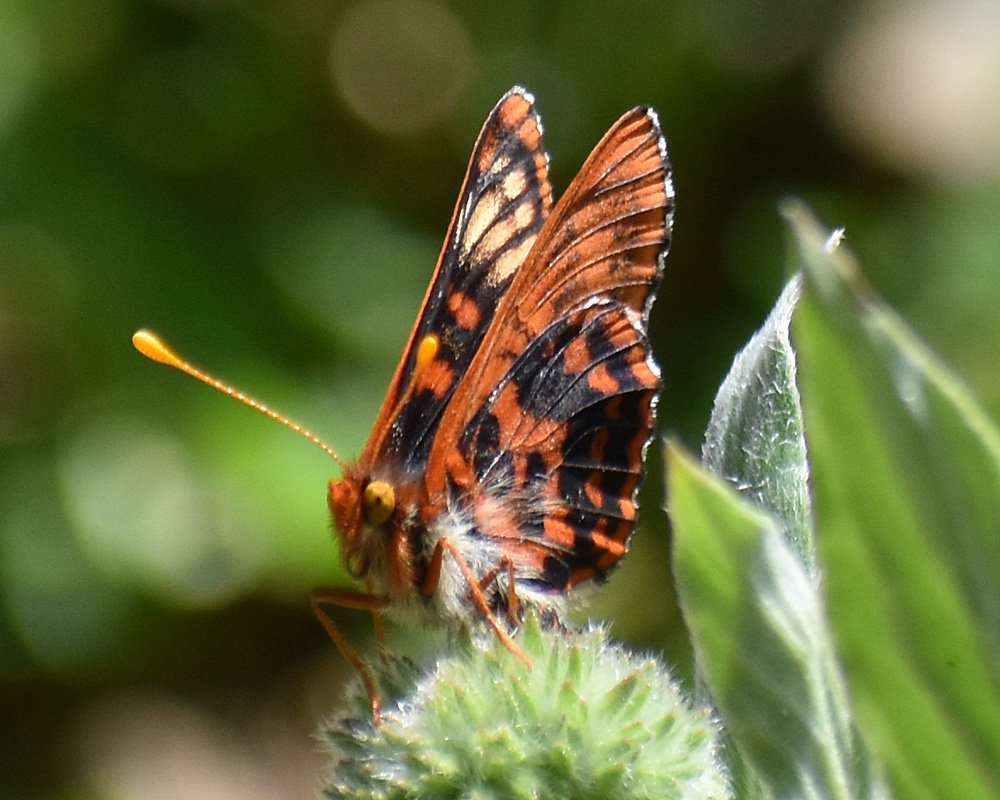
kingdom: Animalia
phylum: Arthropoda
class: Insecta
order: Lepidoptera
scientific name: Lepidoptera
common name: Butterflies
